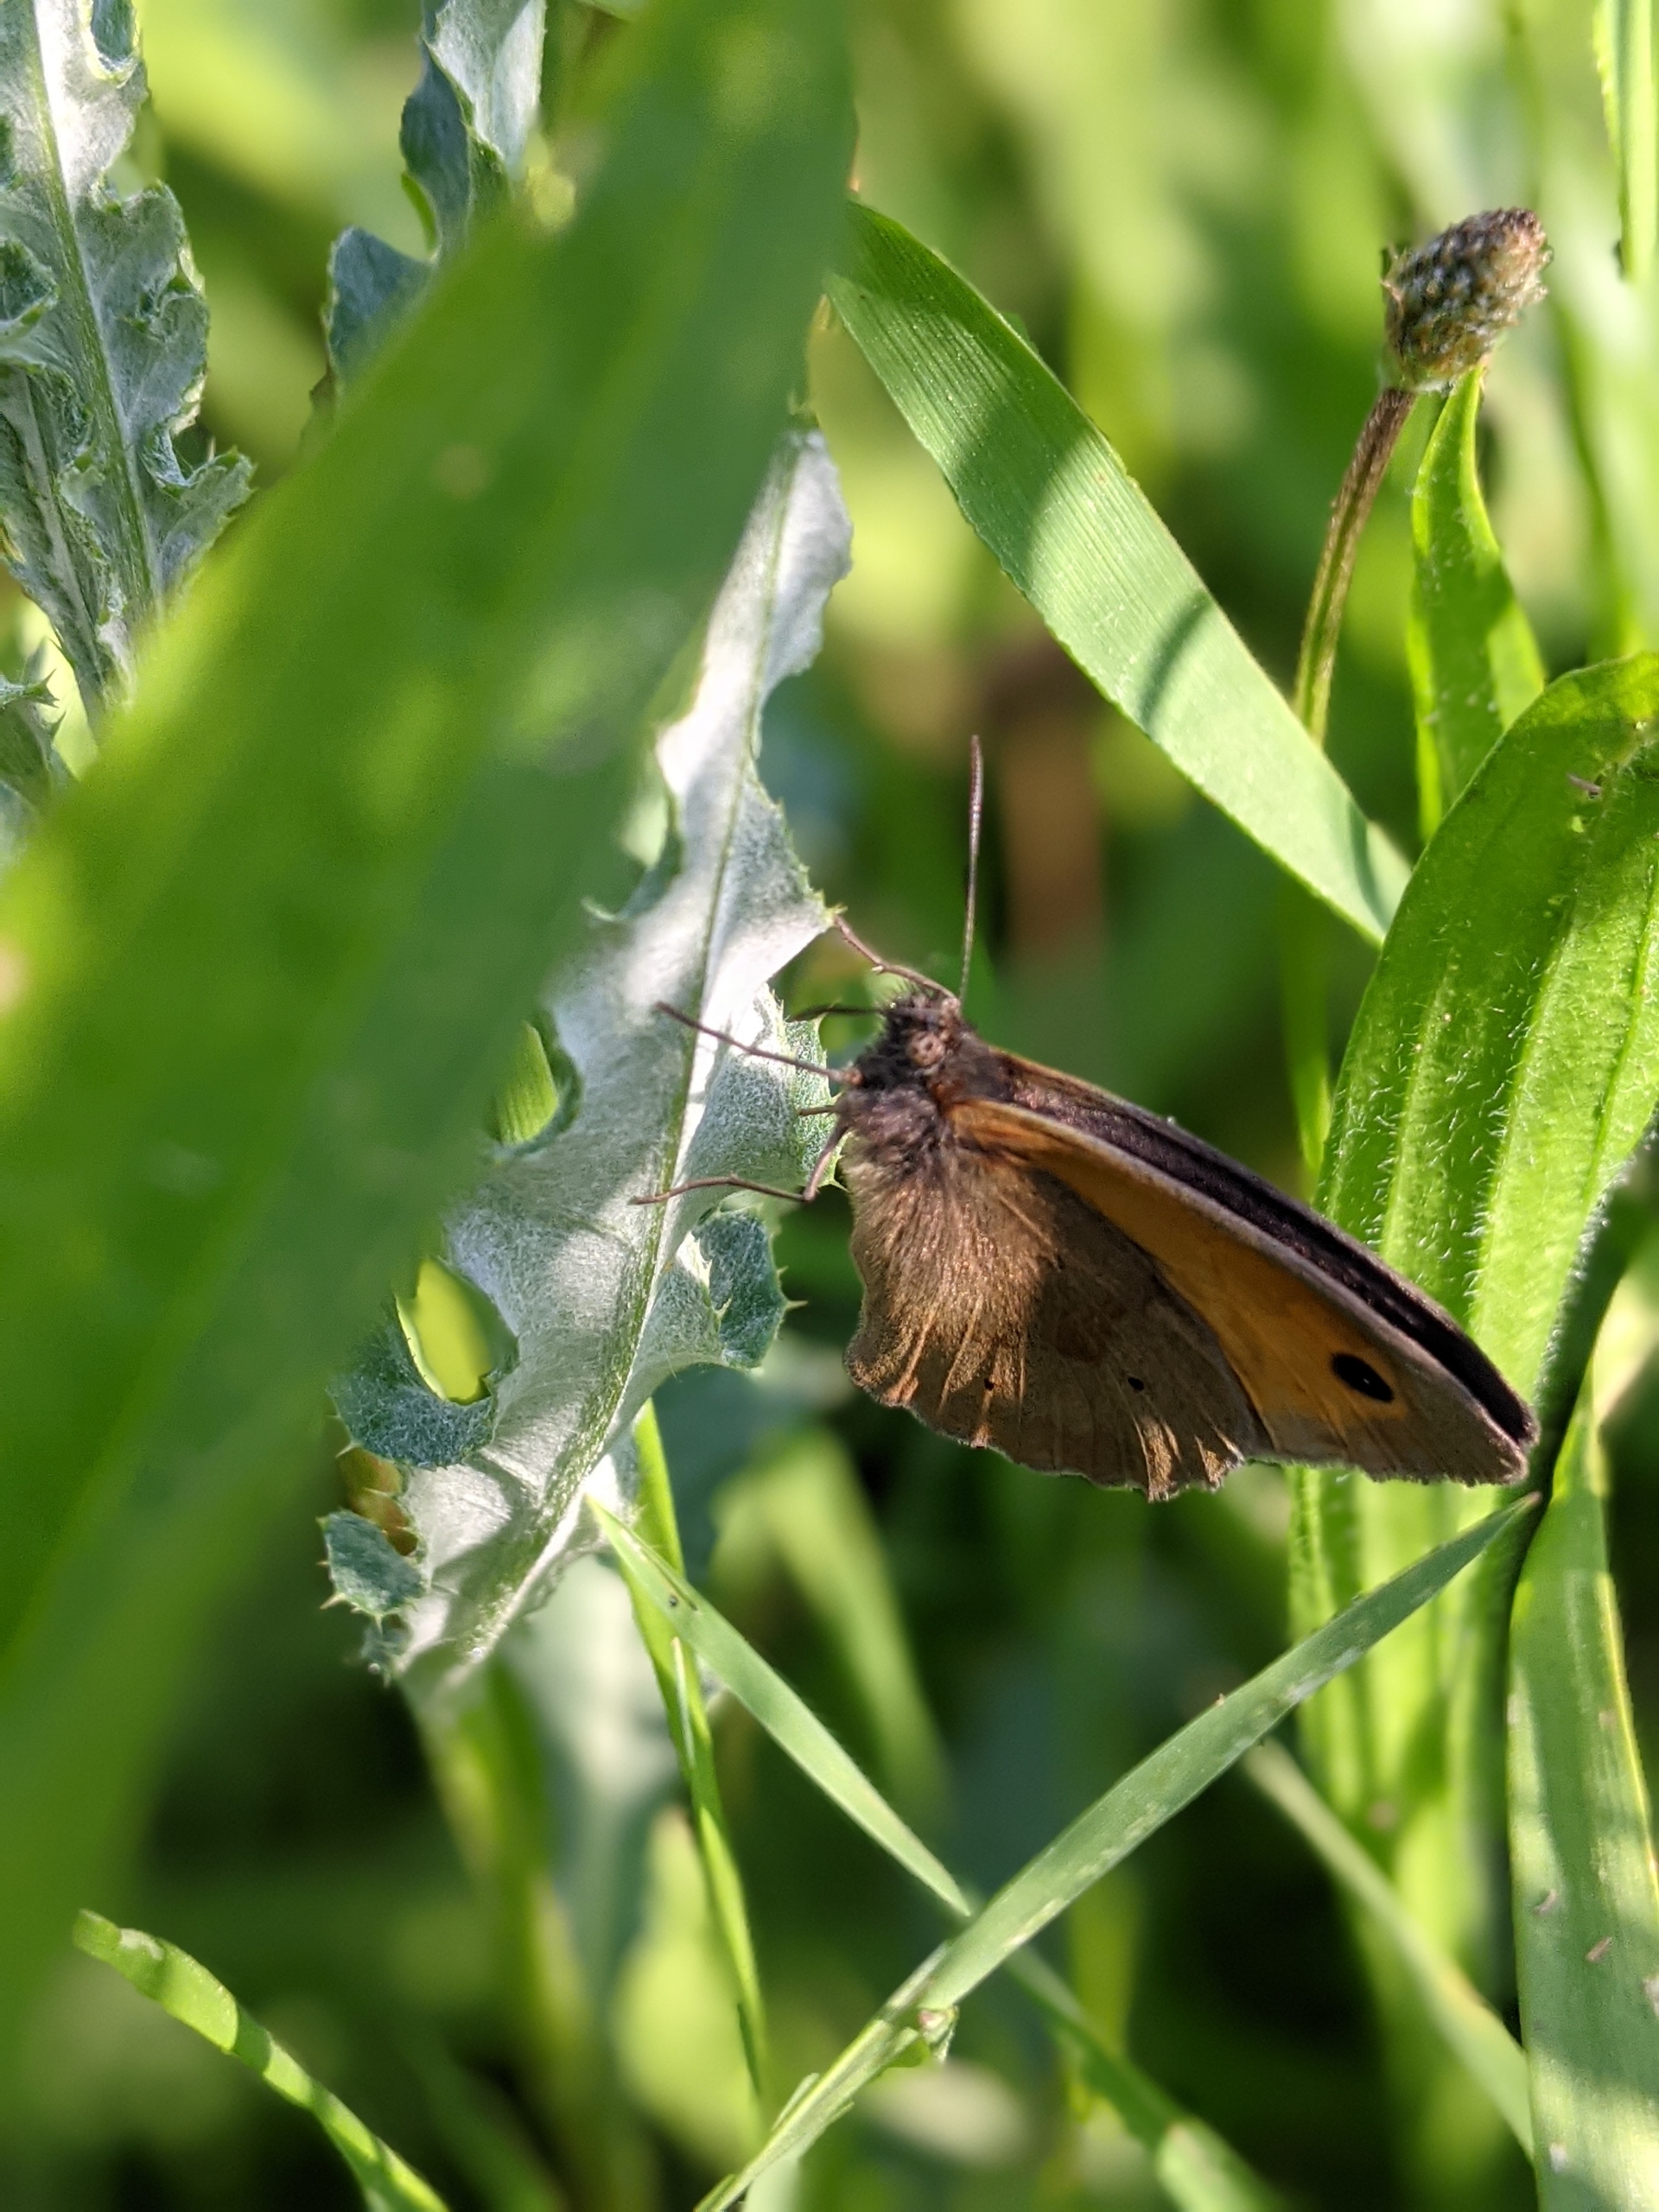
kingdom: Animalia
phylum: Arthropoda
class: Insecta
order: Lepidoptera
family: Nymphalidae
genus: Maniola
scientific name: Maniola jurtina
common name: Græsrandøje
